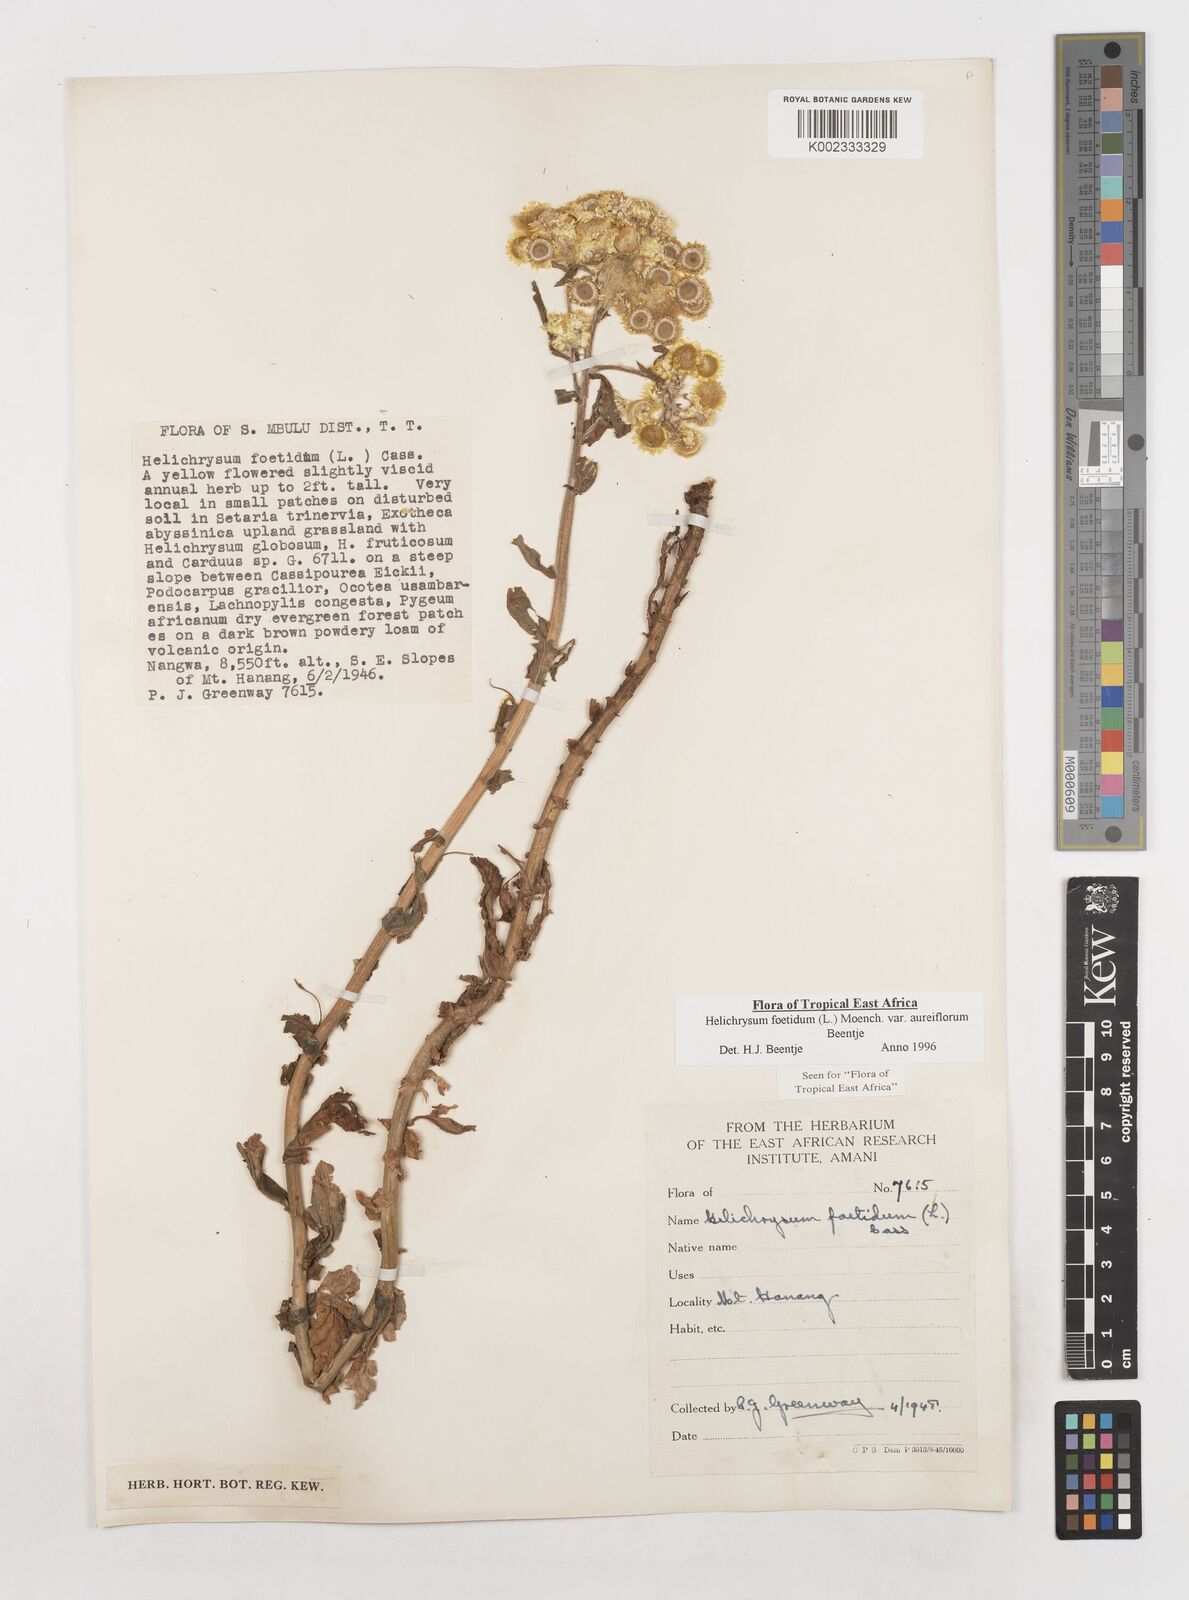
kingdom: Plantae
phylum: Tracheophyta
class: Magnoliopsida
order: Asterales
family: Asteraceae
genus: Helichrysum
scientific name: Helichrysum foetidum
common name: Stinking everlasting
